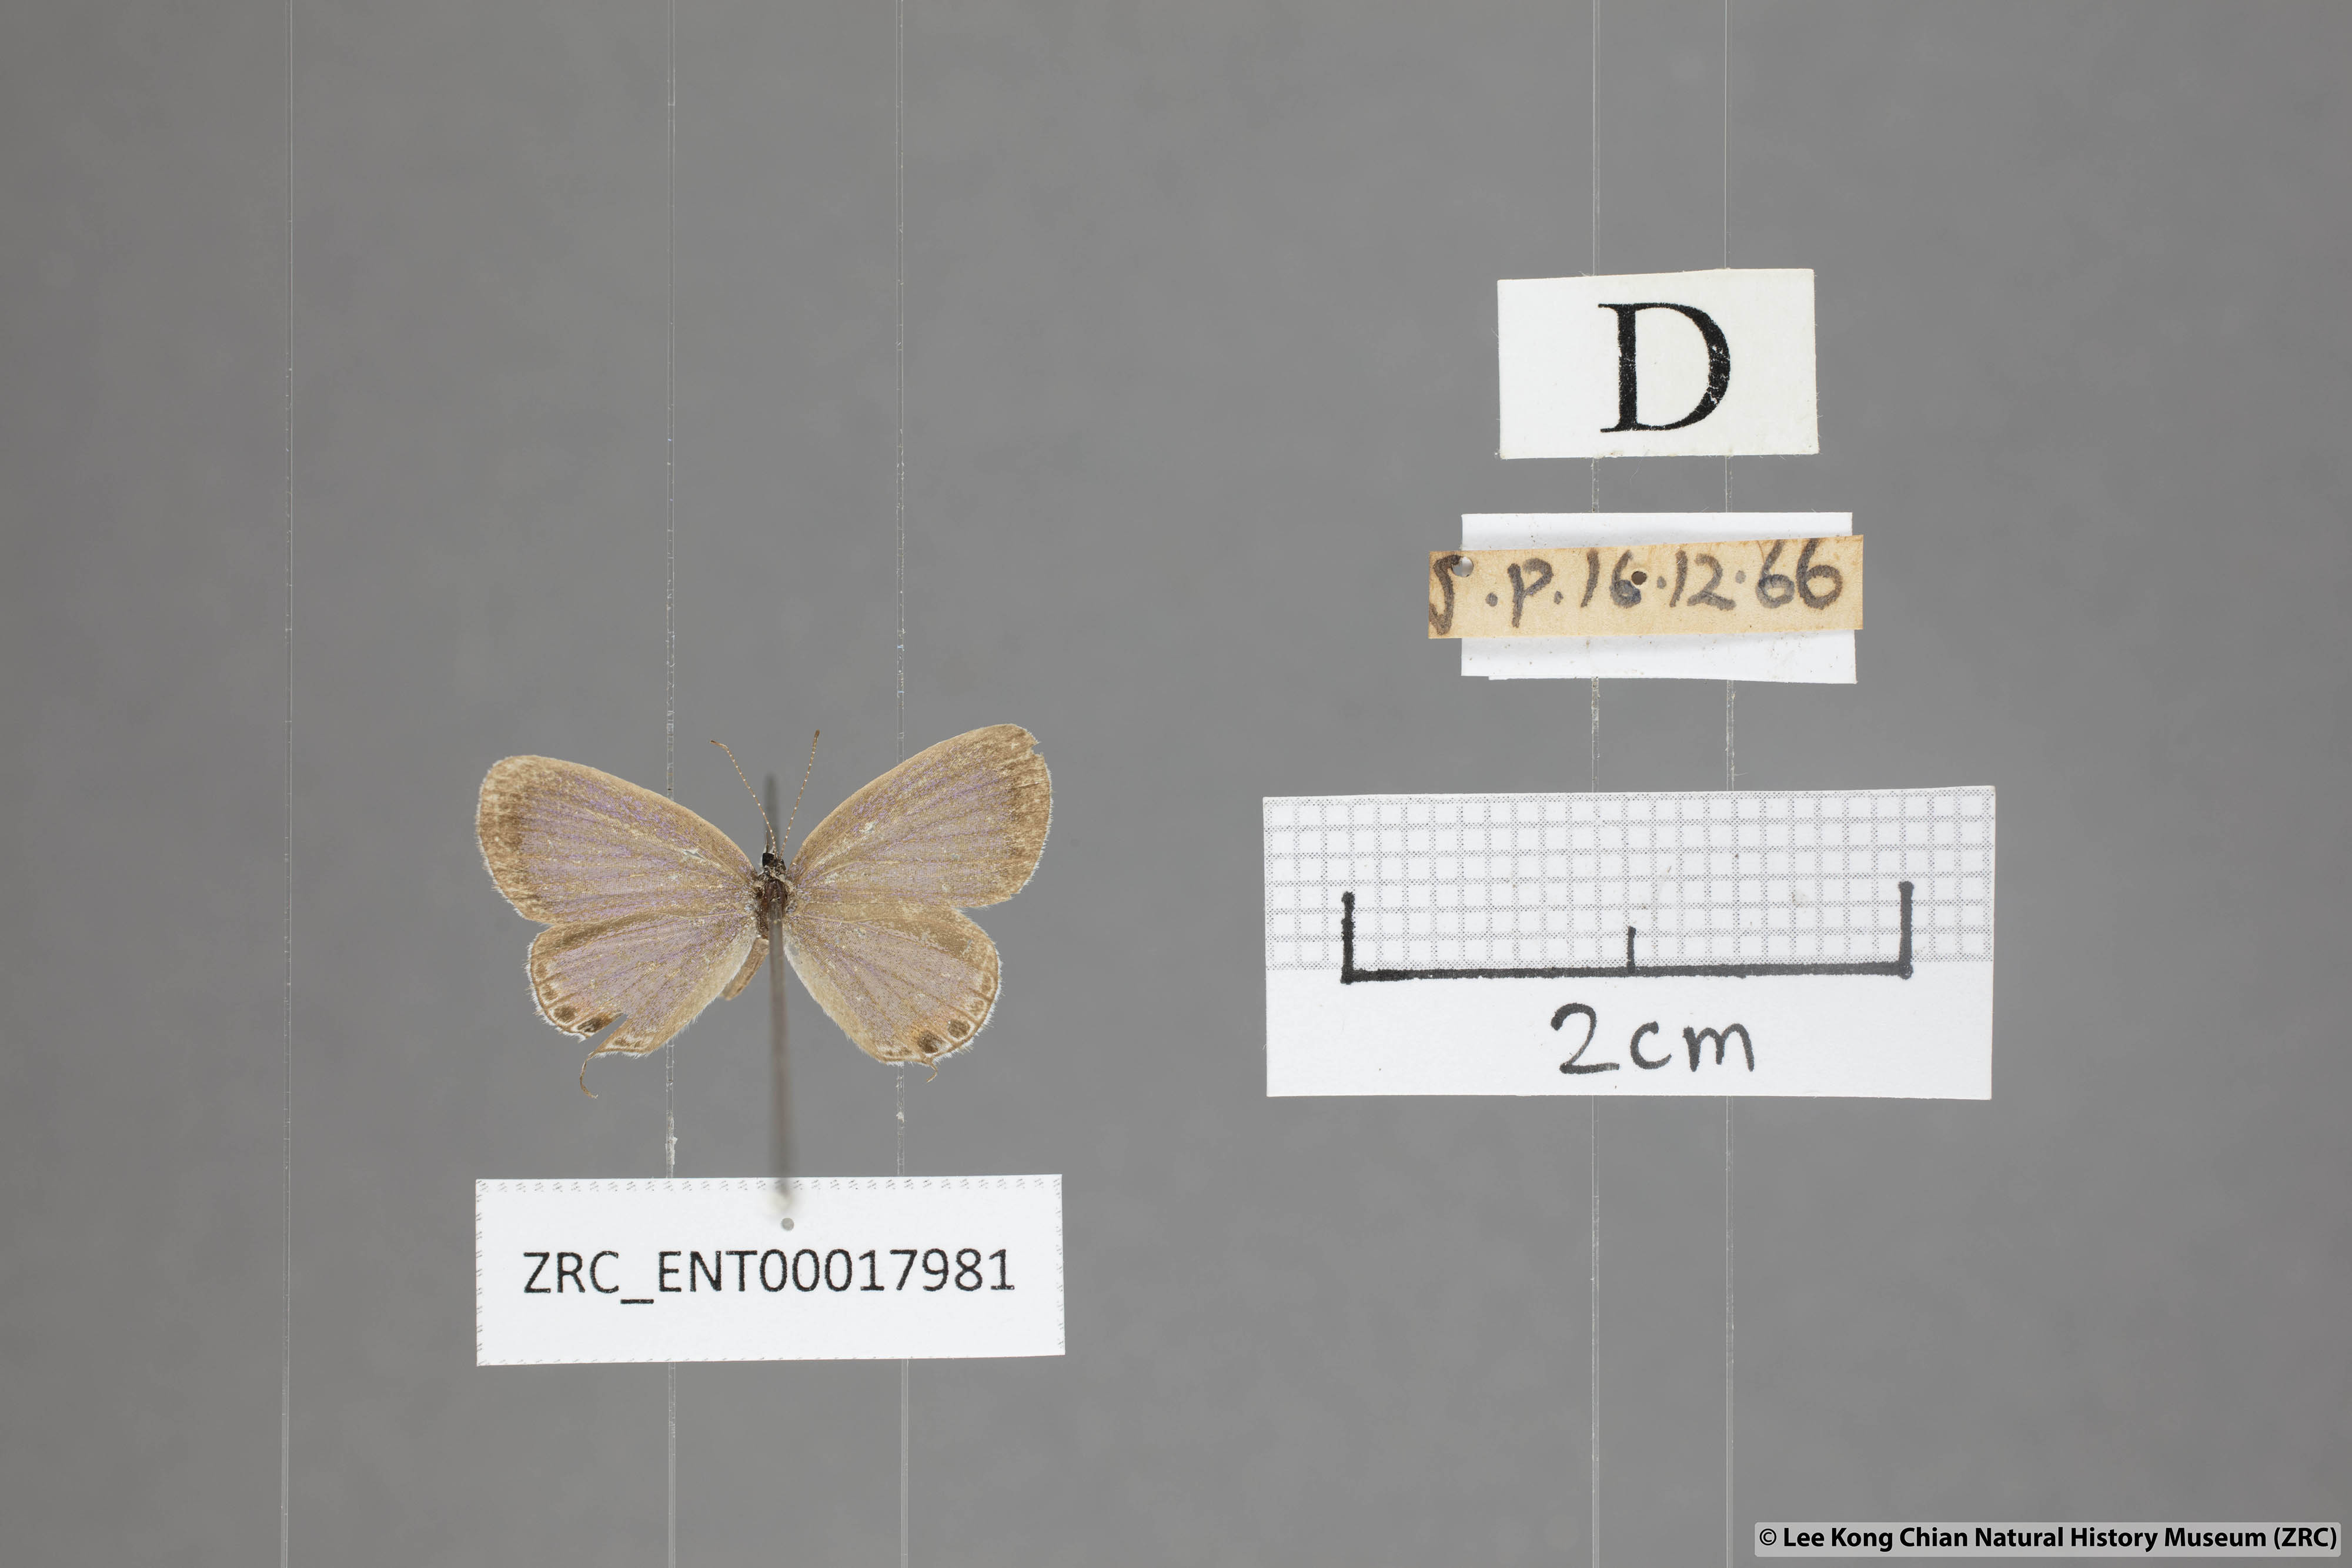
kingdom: Animalia
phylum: Arthropoda
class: Insecta
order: Lepidoptera
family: Lycaenidae
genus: Everes
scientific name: Everes lacturnus
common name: Orange-tipped pea-blue
